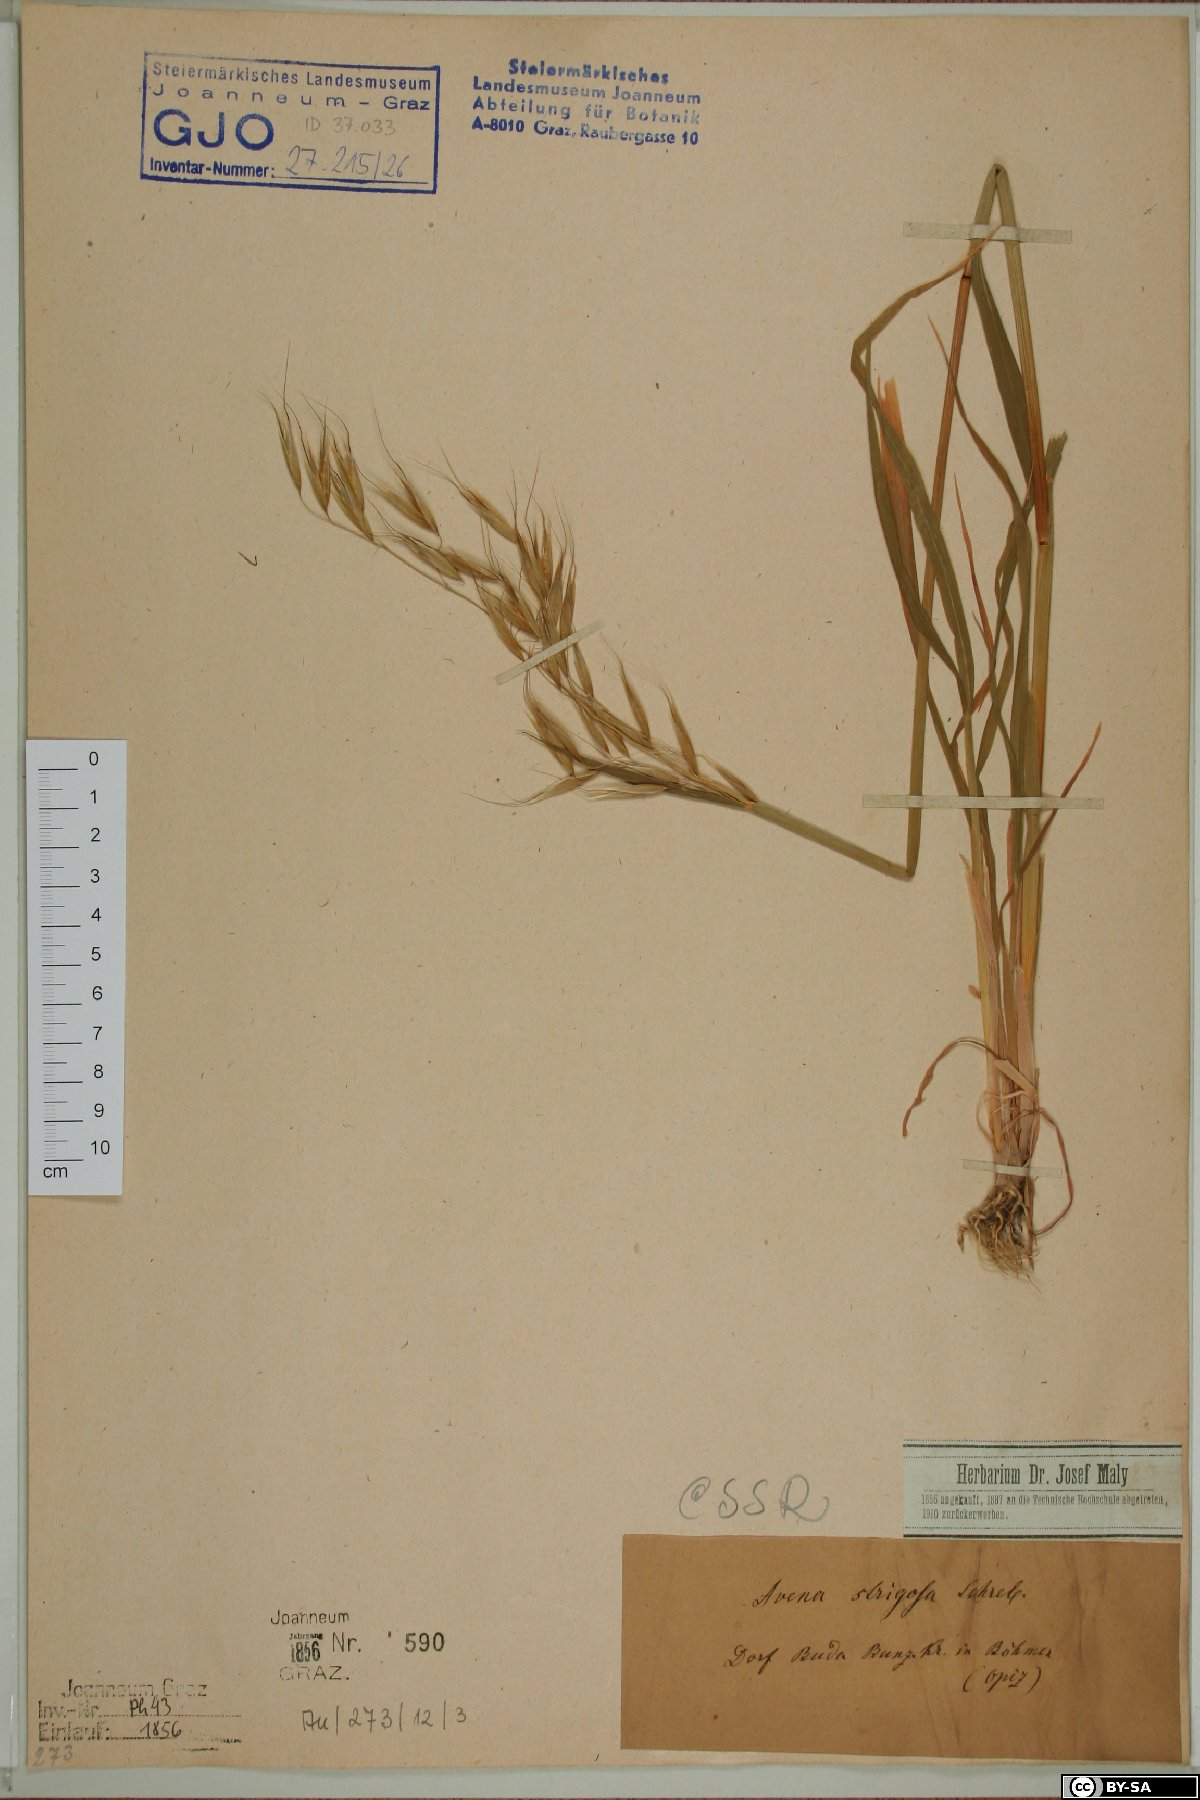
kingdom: Plantae
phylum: Tracheophyta
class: Liliopsida
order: Poales
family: Poaceae
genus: Avena
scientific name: Avena strigosa
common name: Bristle oat
